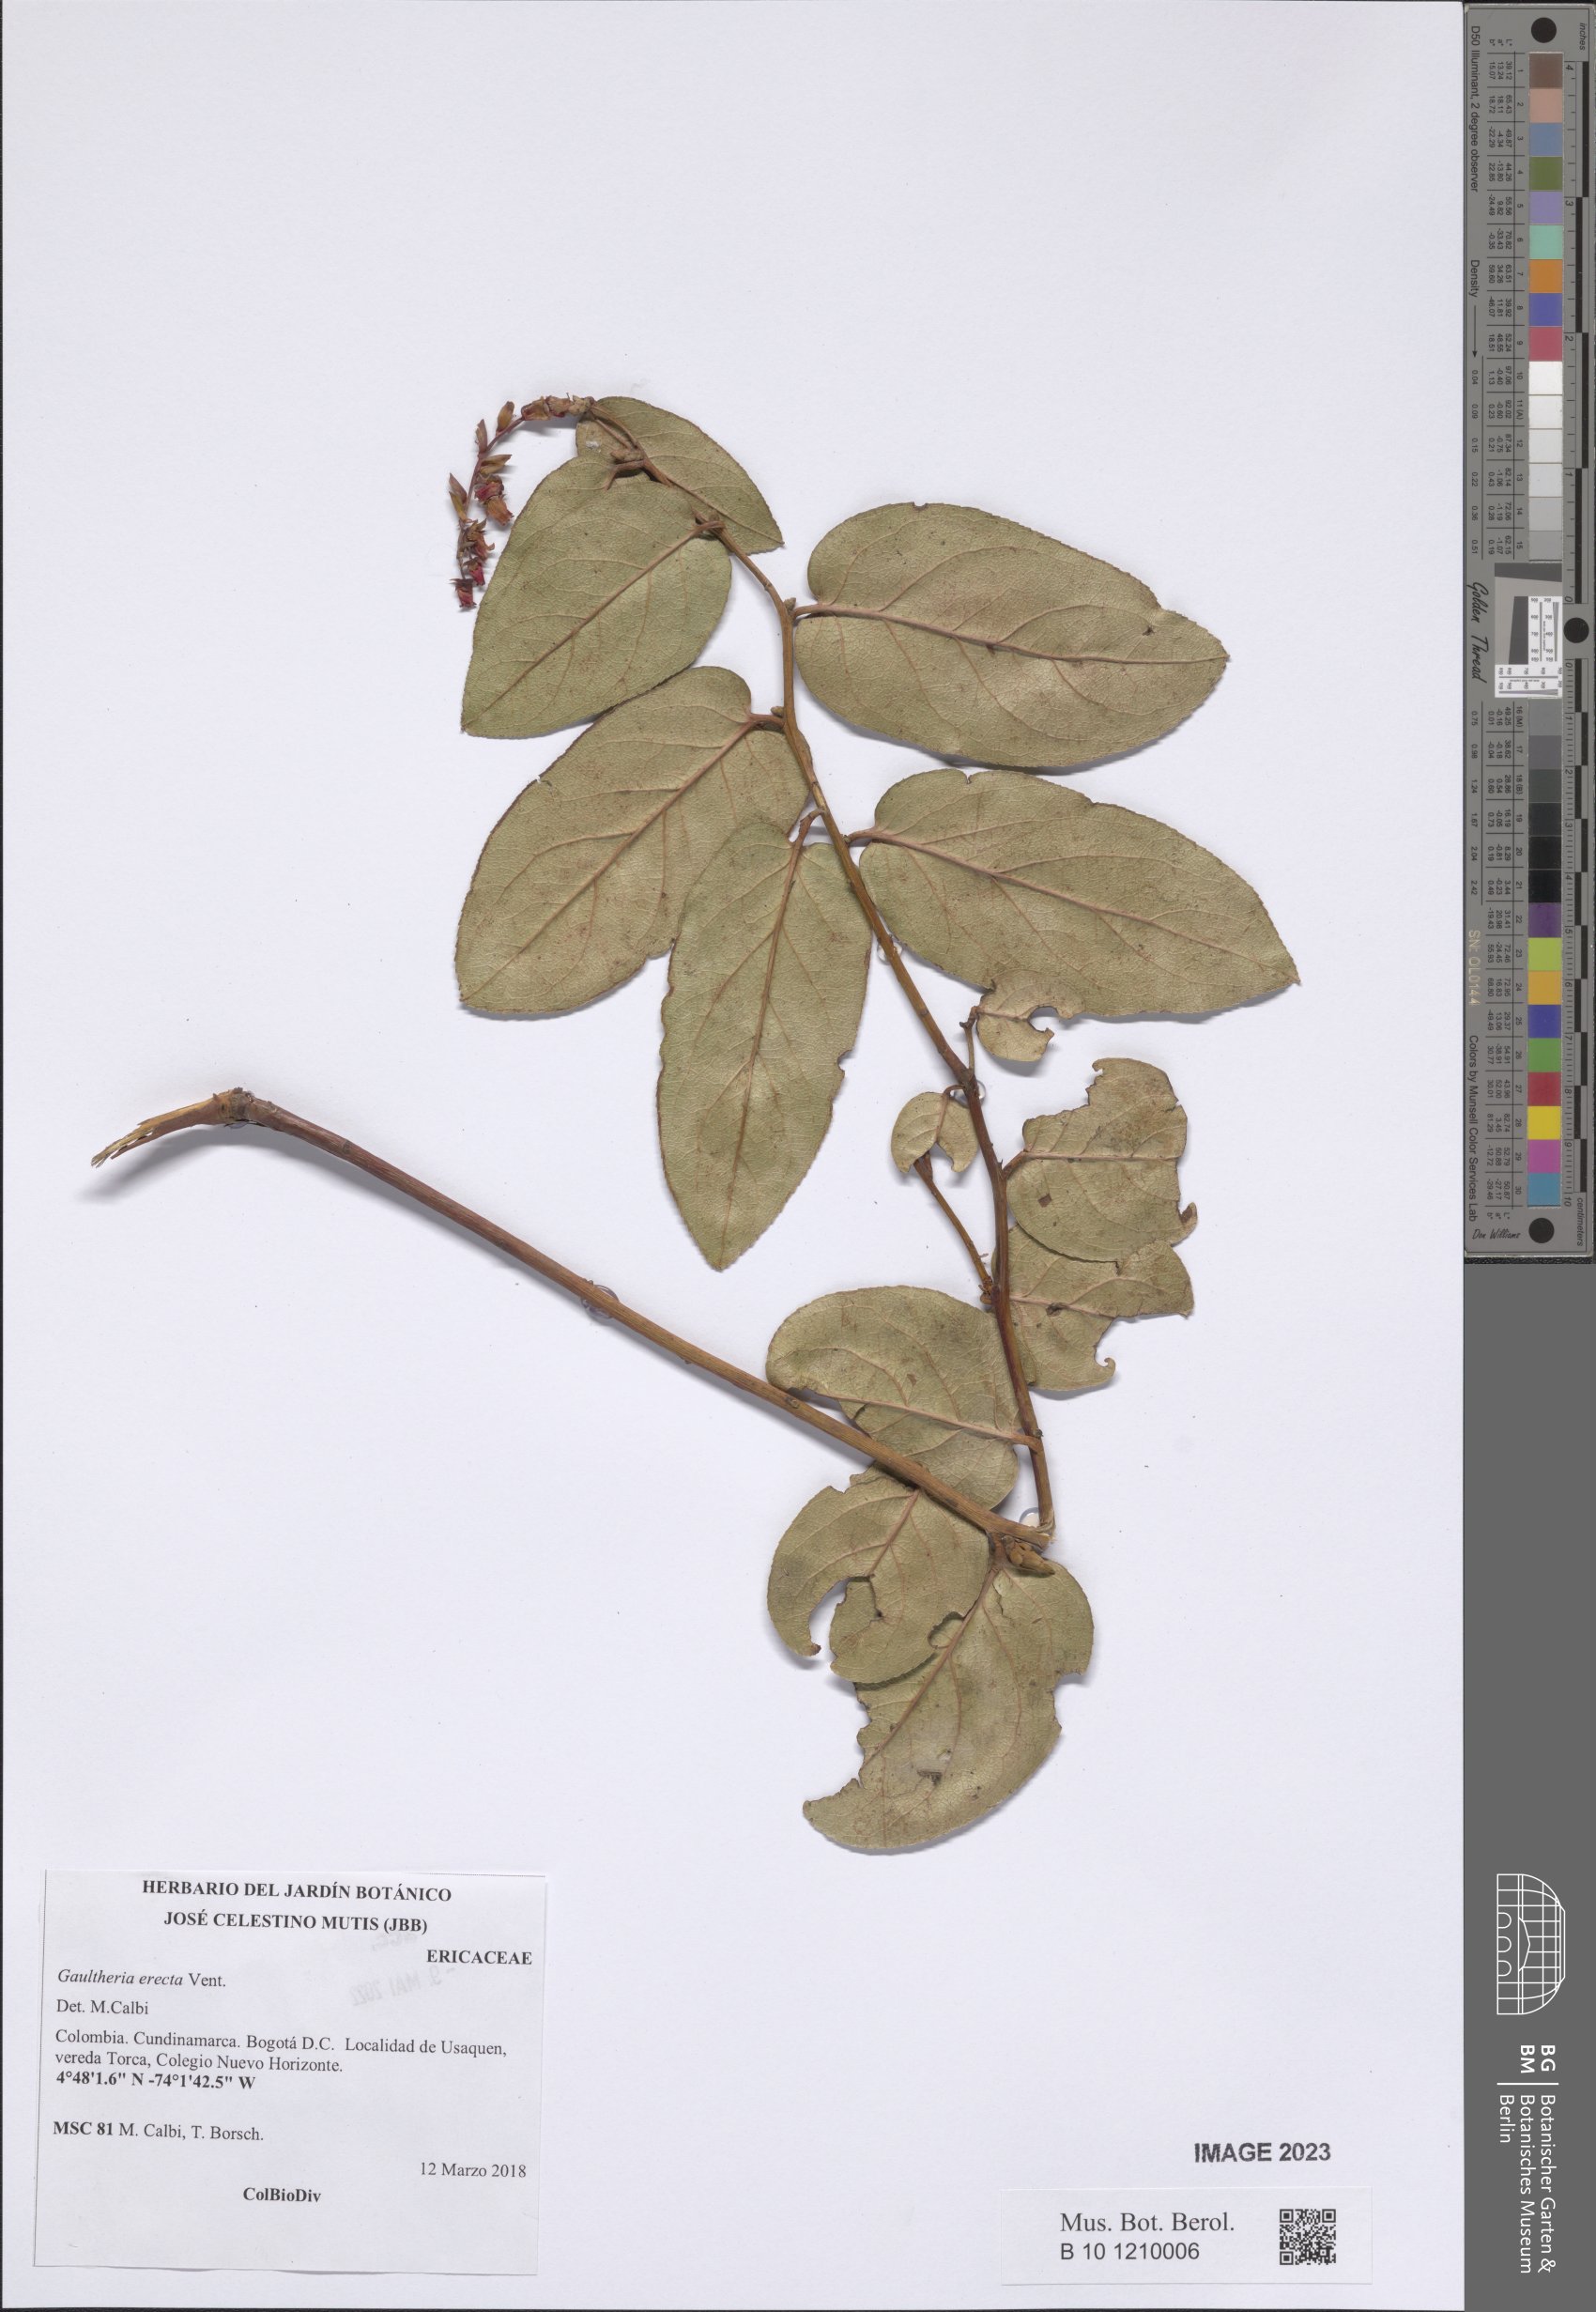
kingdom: Plantae
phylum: Tracheophyta
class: Magnoliopsida
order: Ericales
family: Ericaceae
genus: Gaultheria
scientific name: Gaultheria erecta
